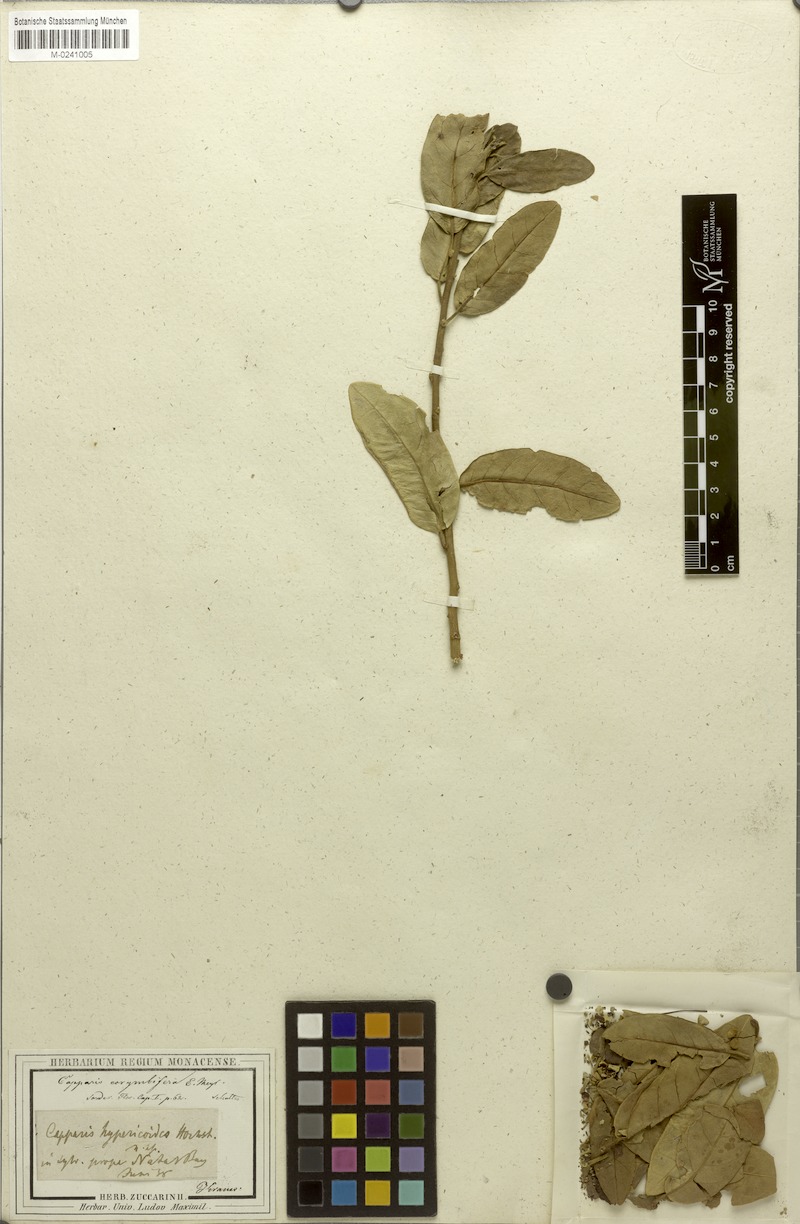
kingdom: Plantae
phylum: Tracheophyta
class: Magnoliopsida
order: Brassicales
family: Capparaceae
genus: Capparis
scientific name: Capparis tomentosa
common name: African caper
